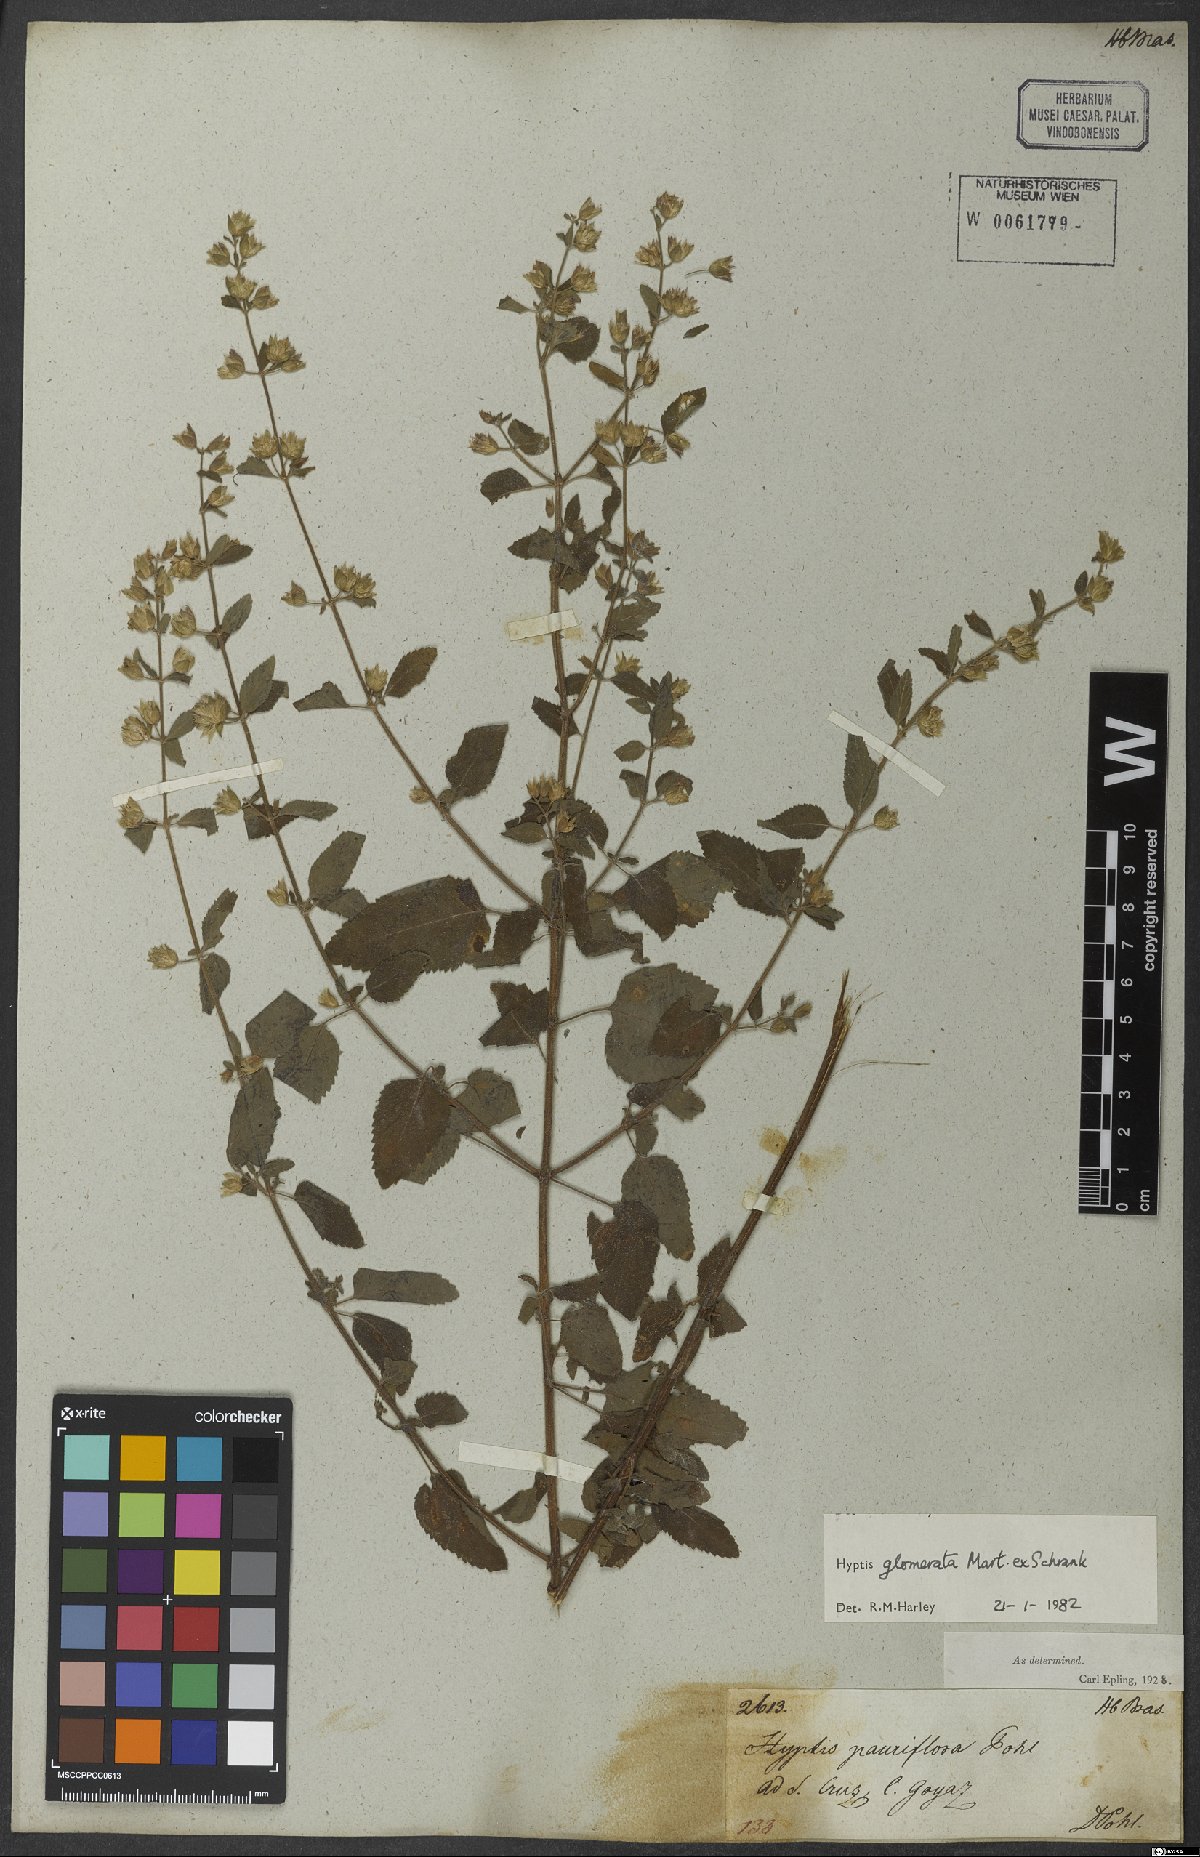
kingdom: Plantae
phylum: Tracheophyta
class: Magnoliopsida
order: Lamiales
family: Lamiaceae
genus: Oocephalus
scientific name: Oocephalus oppositiflorus
